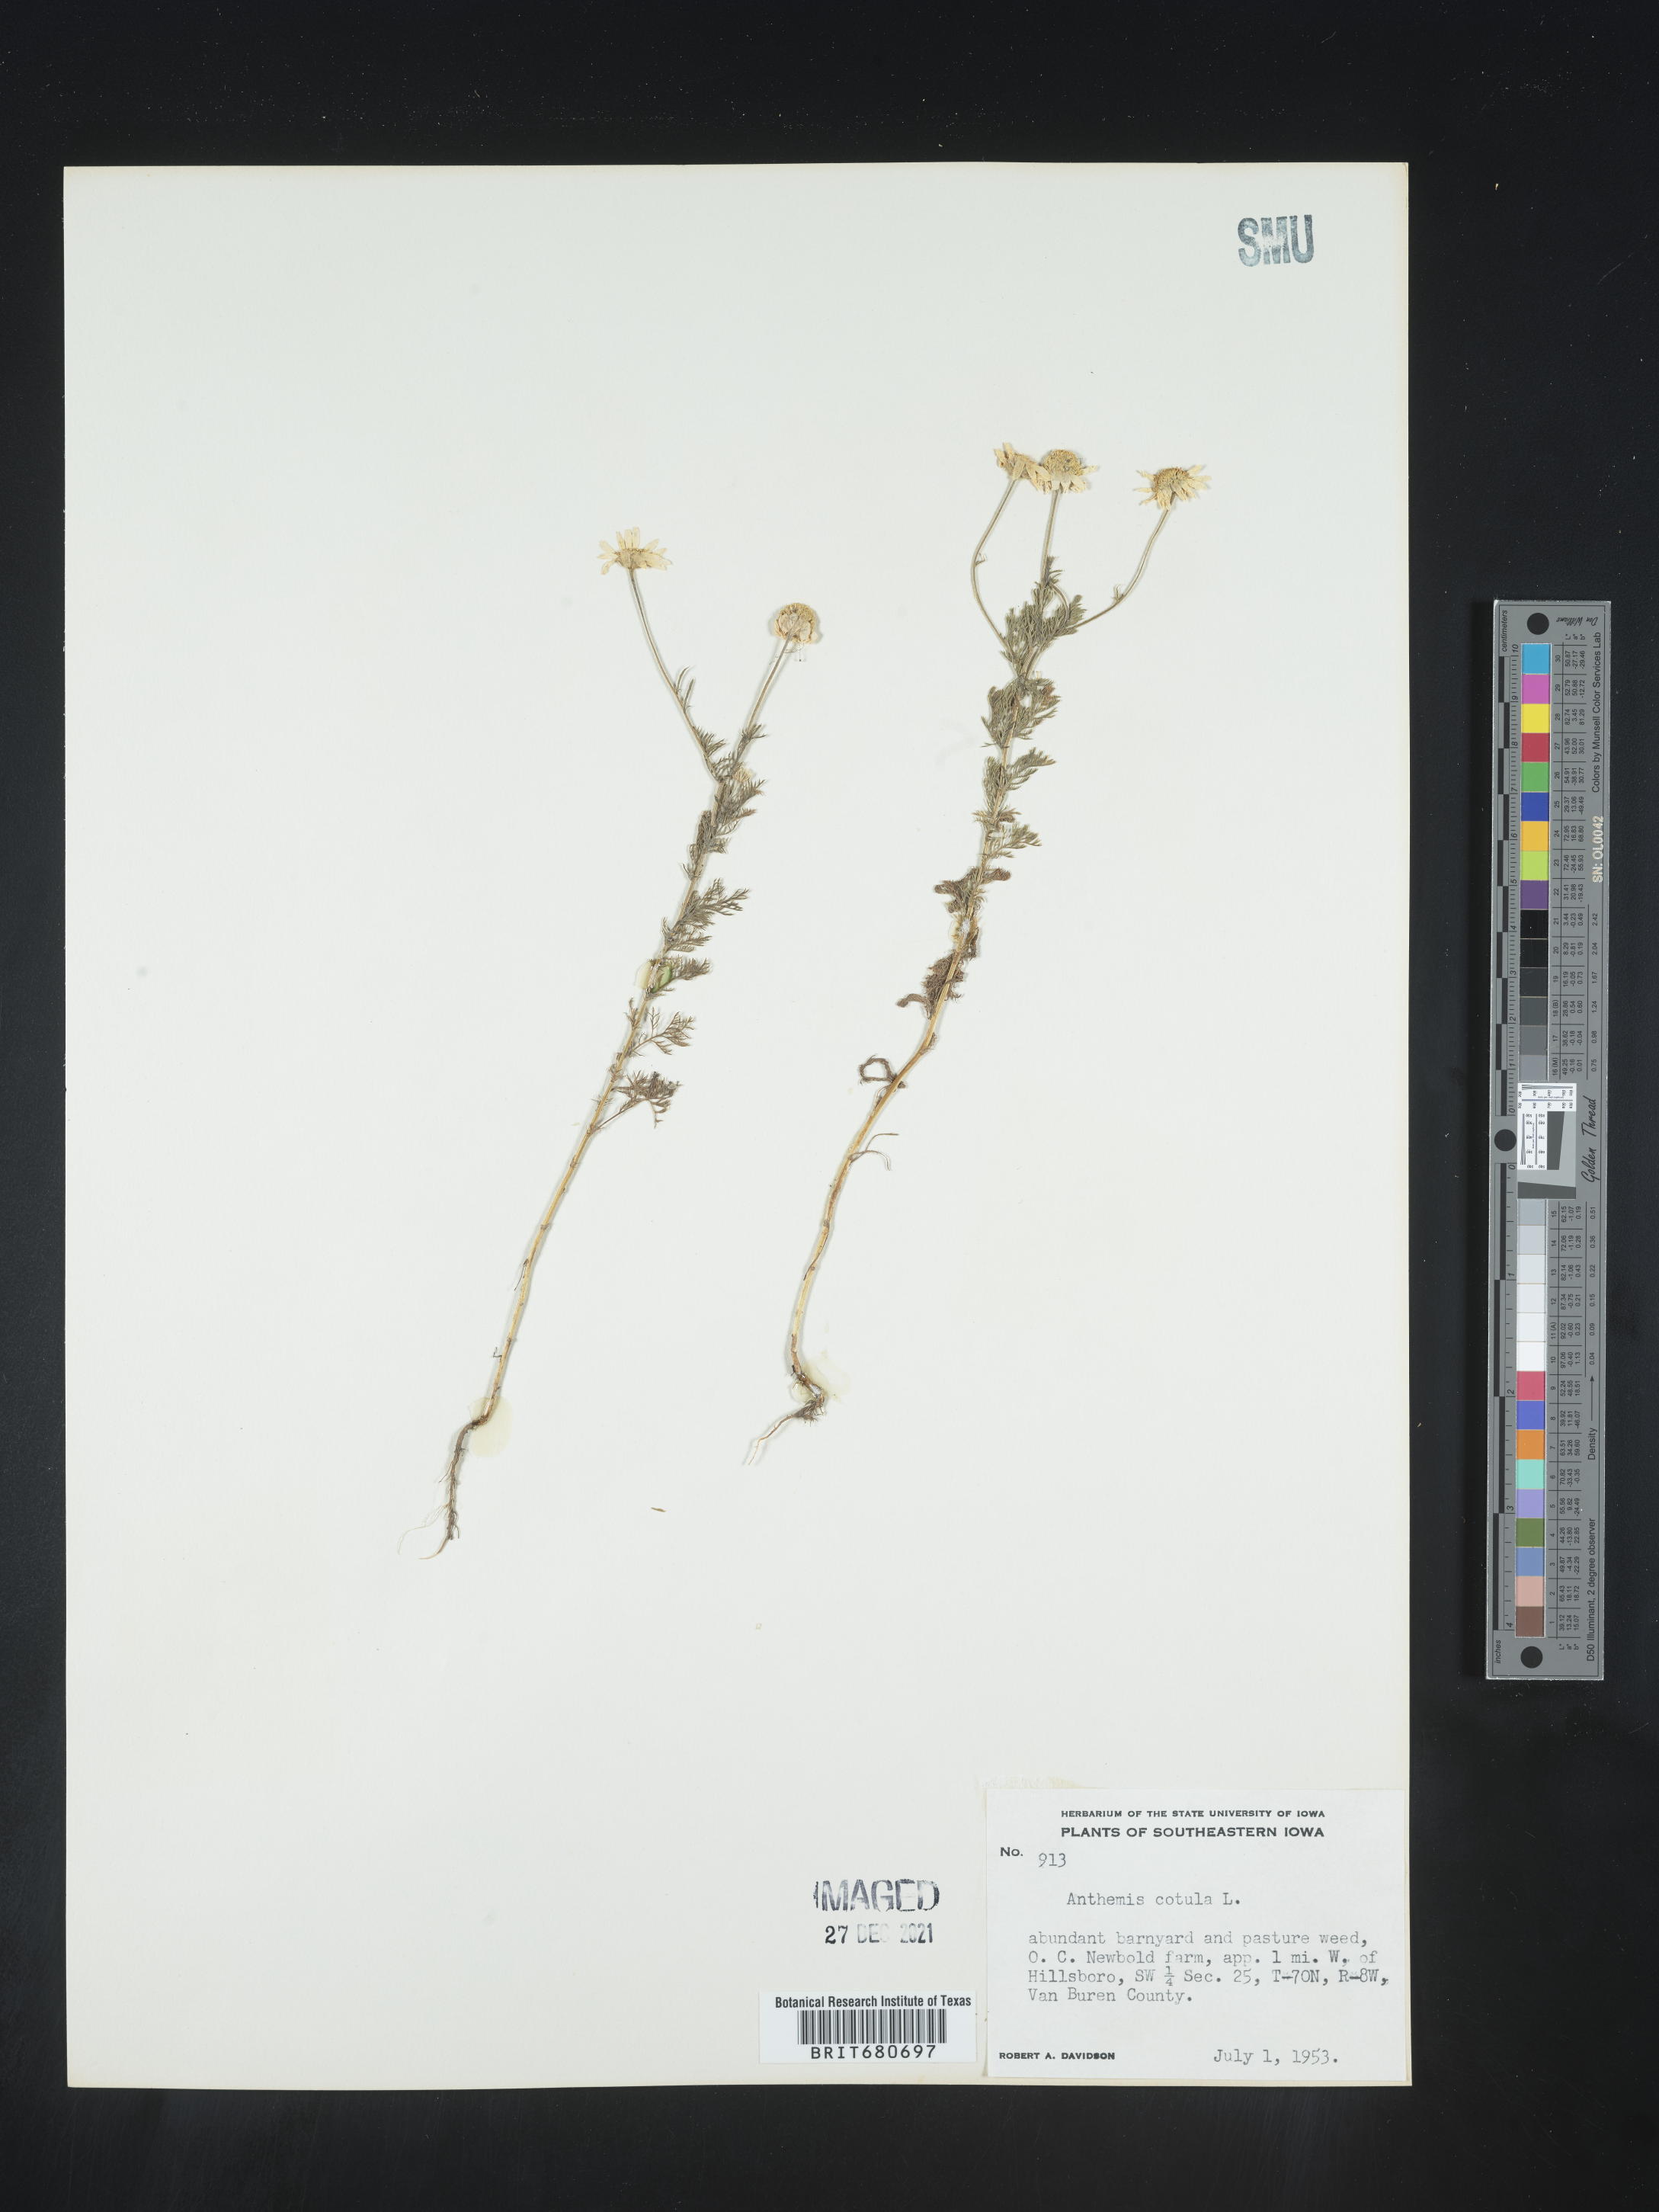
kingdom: Plantae
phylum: Tracheophyta
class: Magnoliopsida
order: Asterales
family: Asteraceae
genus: Anthemis
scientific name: Anthemis cotula
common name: Stinking chamomile
